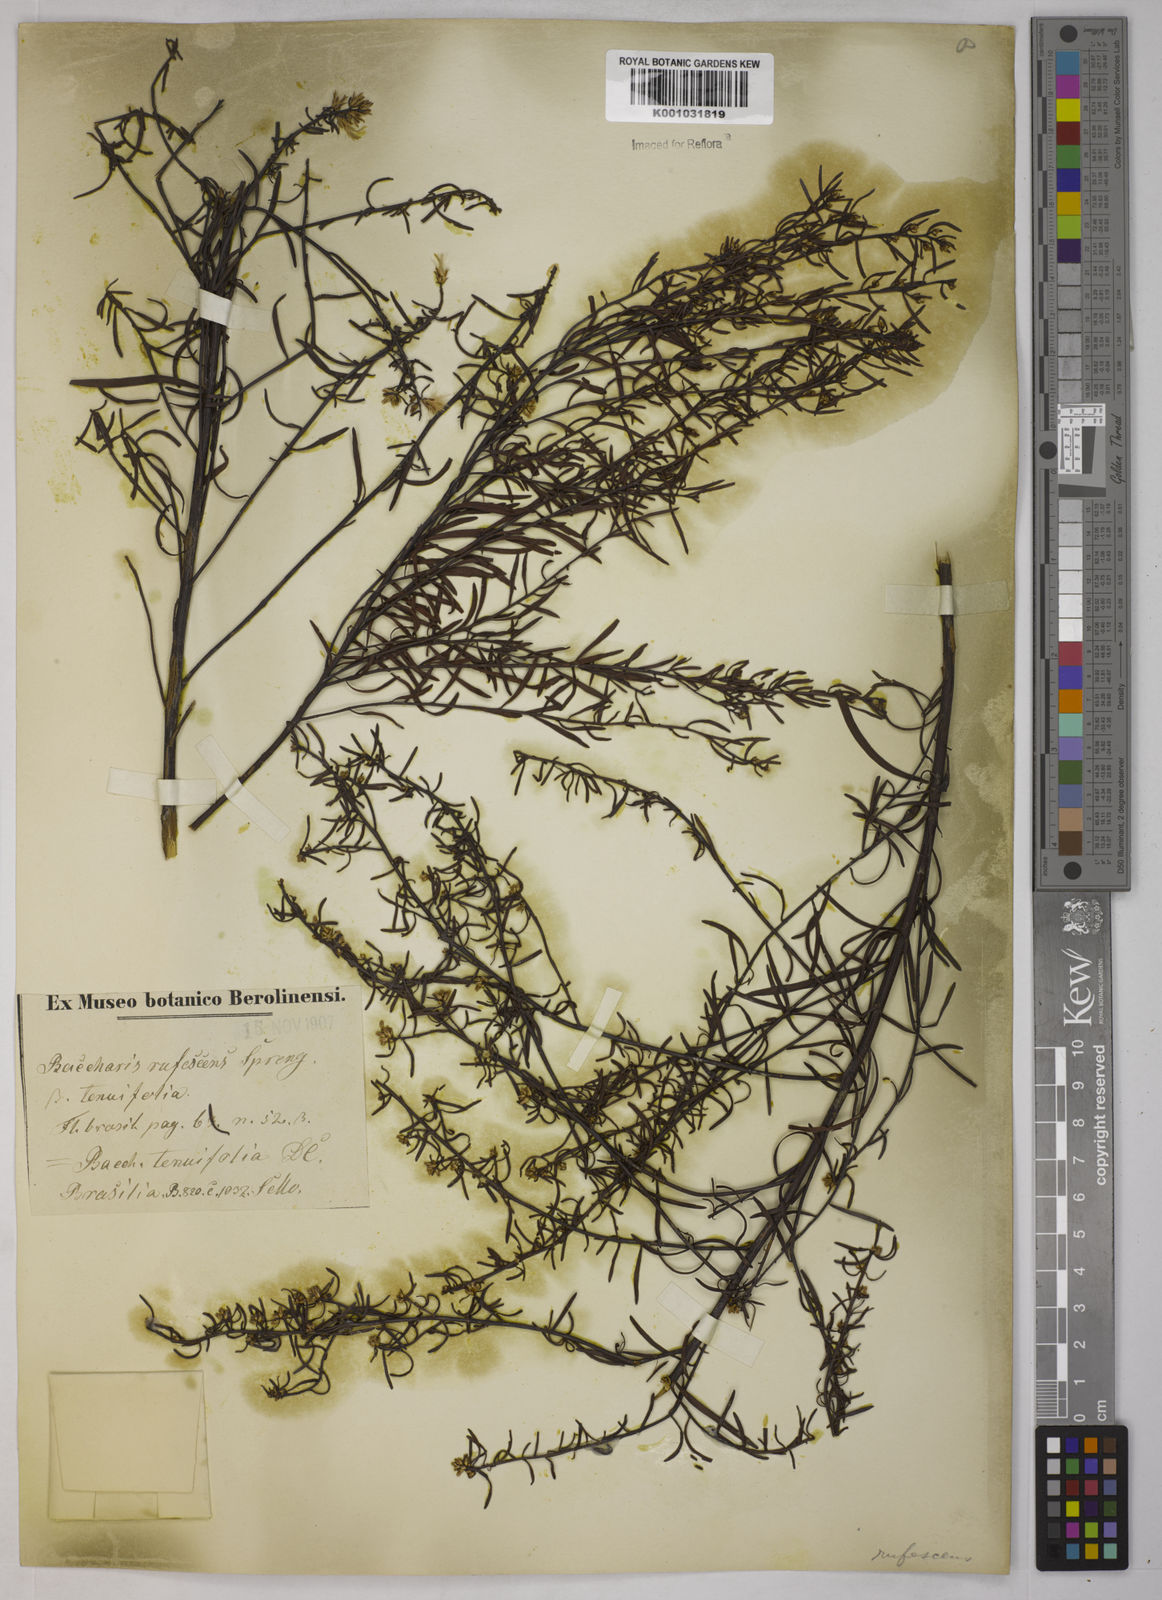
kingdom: Plantae
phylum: Tracheophyta
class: Magnoliopsida
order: Asterales
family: Asteraceae
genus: Baccharis
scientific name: Baccharis leptocephala
